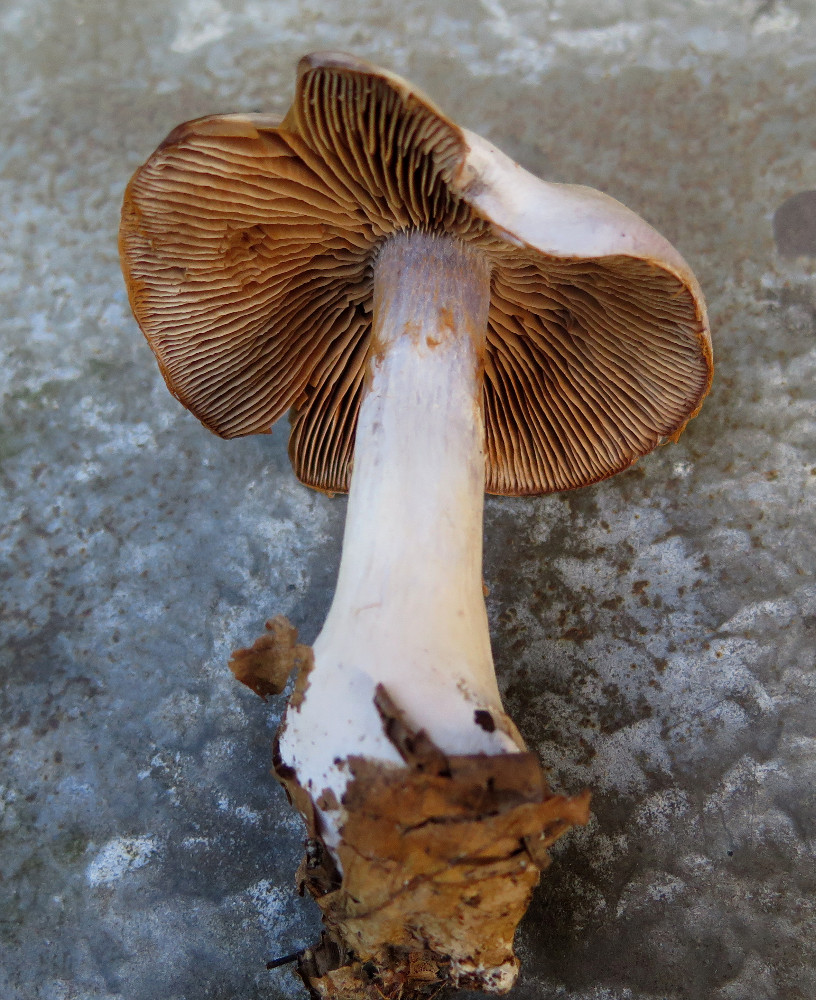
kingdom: Fungi
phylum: Basidiomycota
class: Agaricomycetes
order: Agaricales
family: Cortinariaceae
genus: Cortinarius
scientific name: Cortinarius alboviolaceus
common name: lysviolet slørhat
